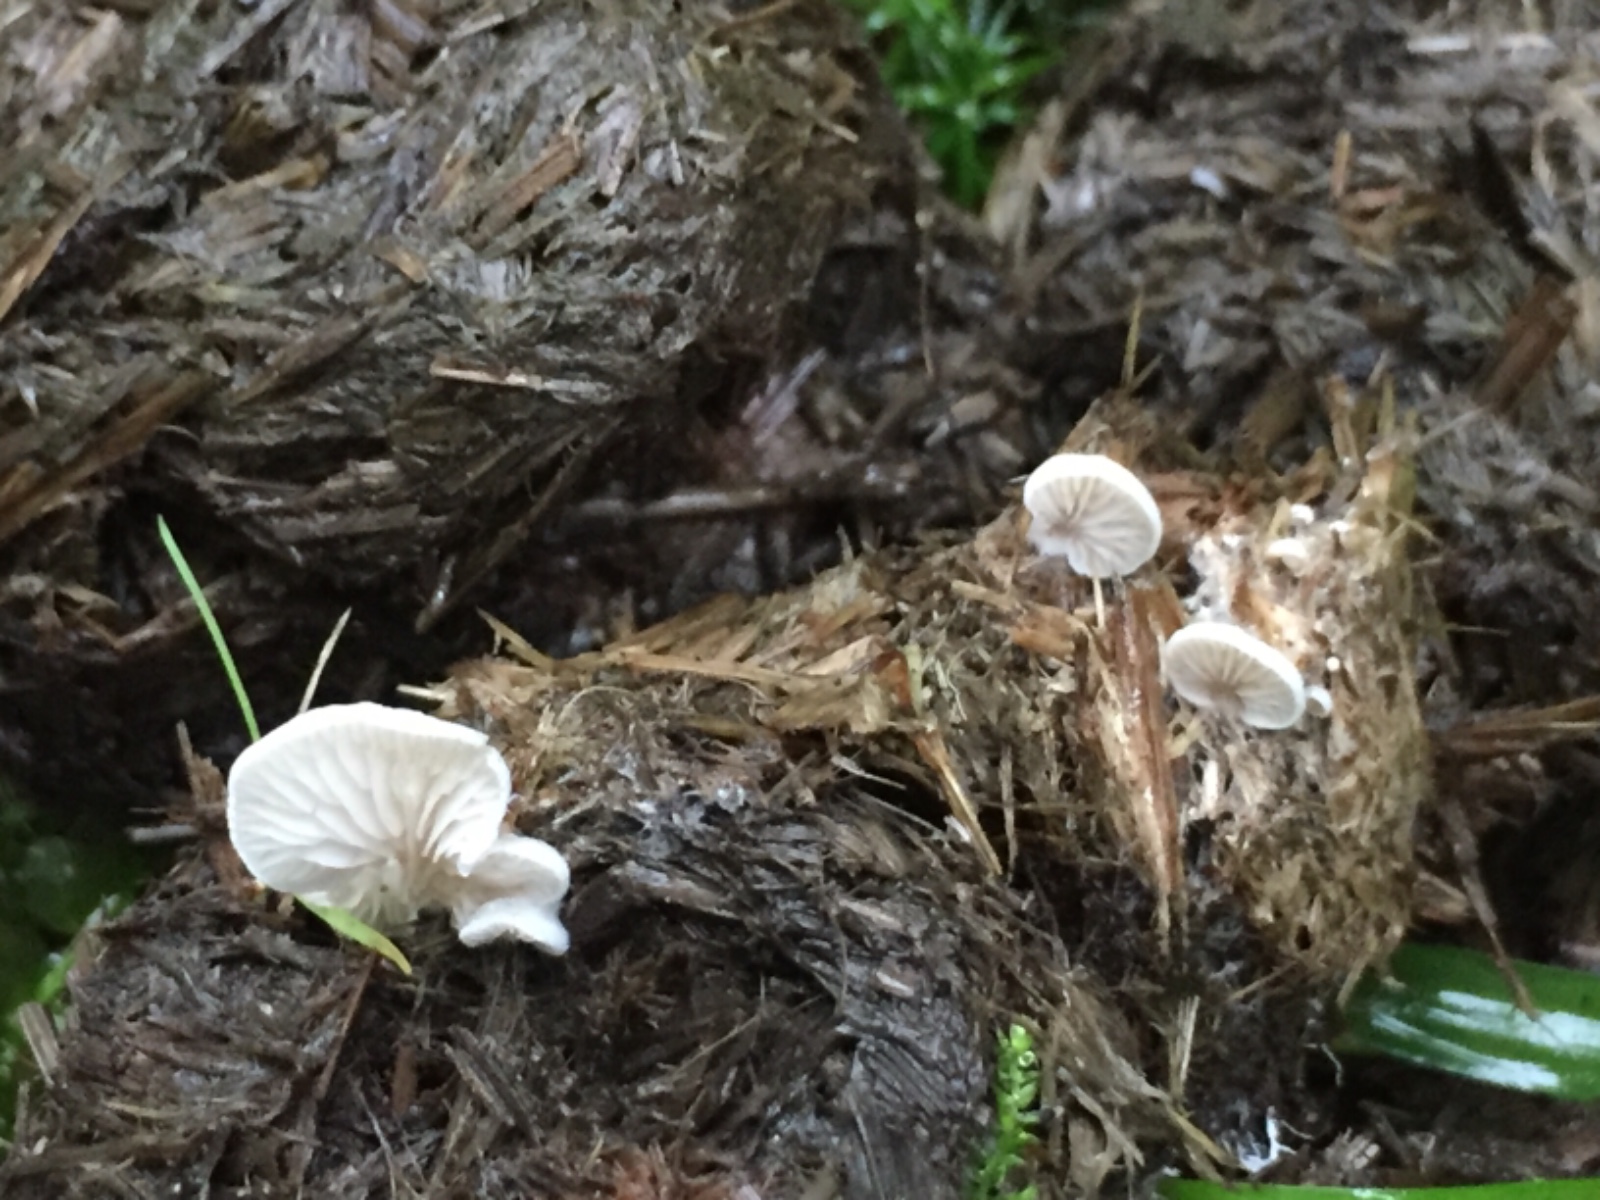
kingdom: Fungi
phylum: Basidiomycota
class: Agaricomycetes
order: Agaricales
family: Entolomataceae
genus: Clitopilus
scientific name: Clitopilus hobsonii
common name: Miller's oysterling
